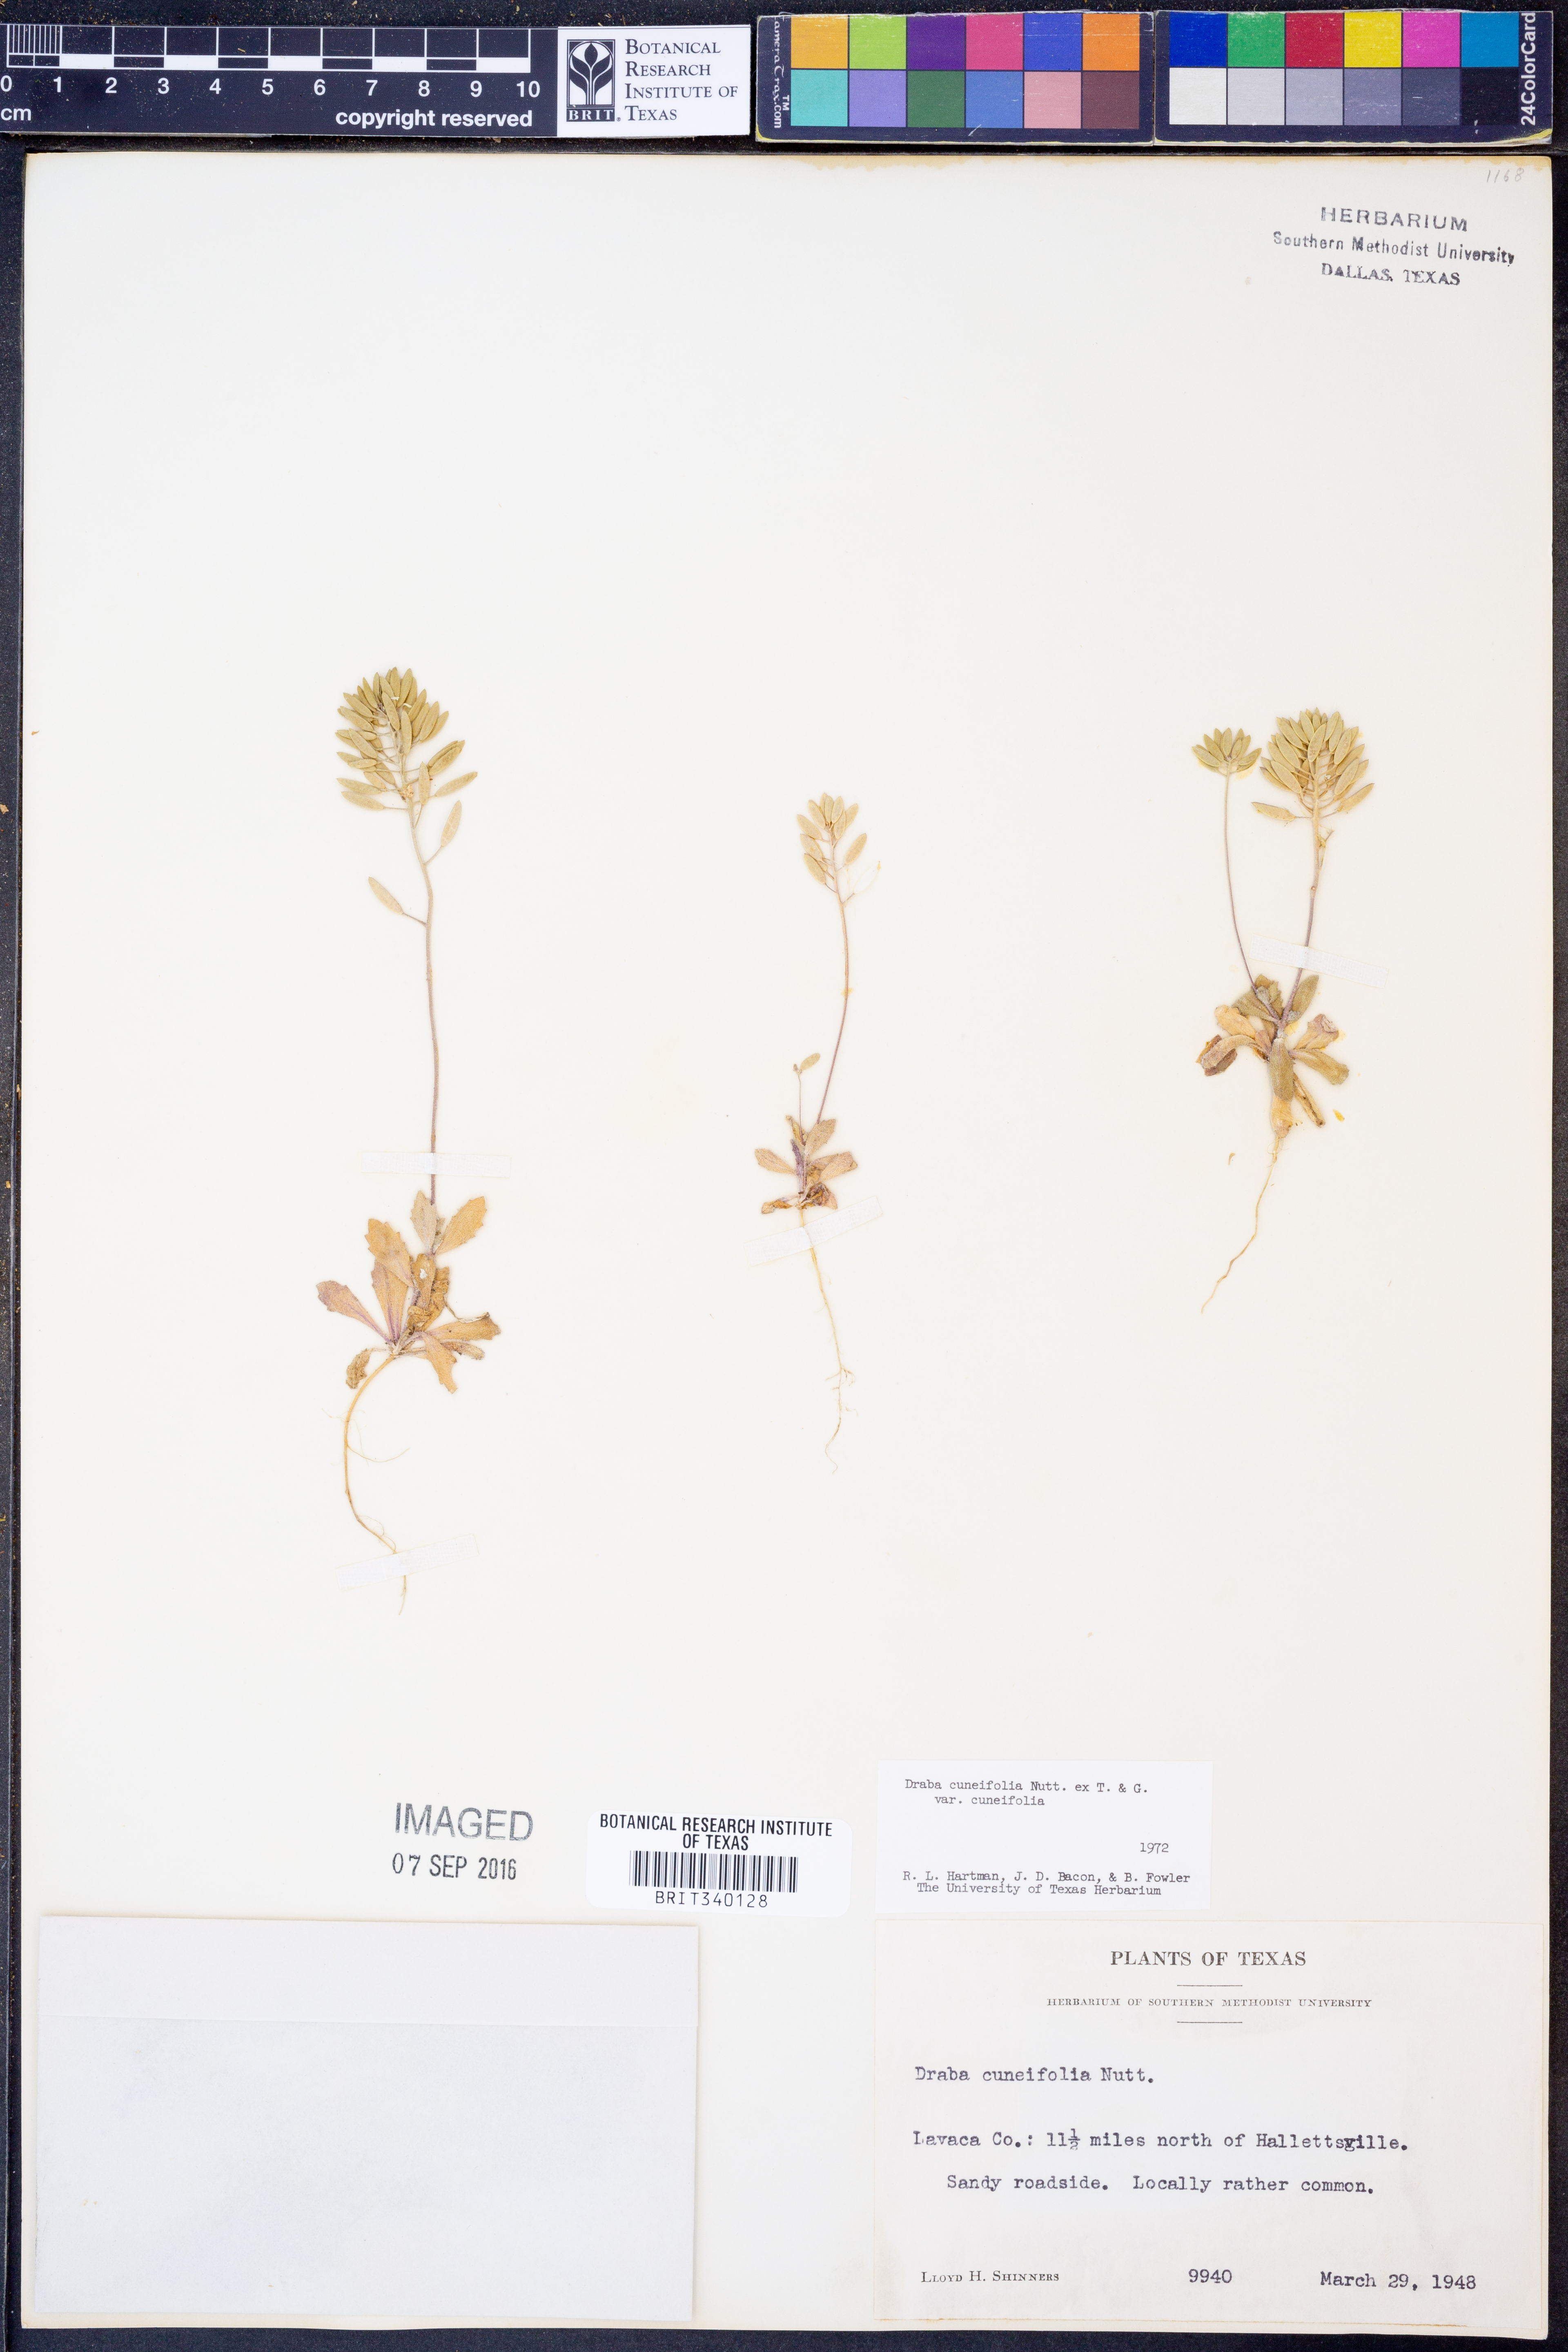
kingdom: Plantae
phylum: Tracheophyta
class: Magnoliopsida
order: Brassicales
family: Brassicaceae
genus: Tomostima
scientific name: Tomostima cuneifolia
